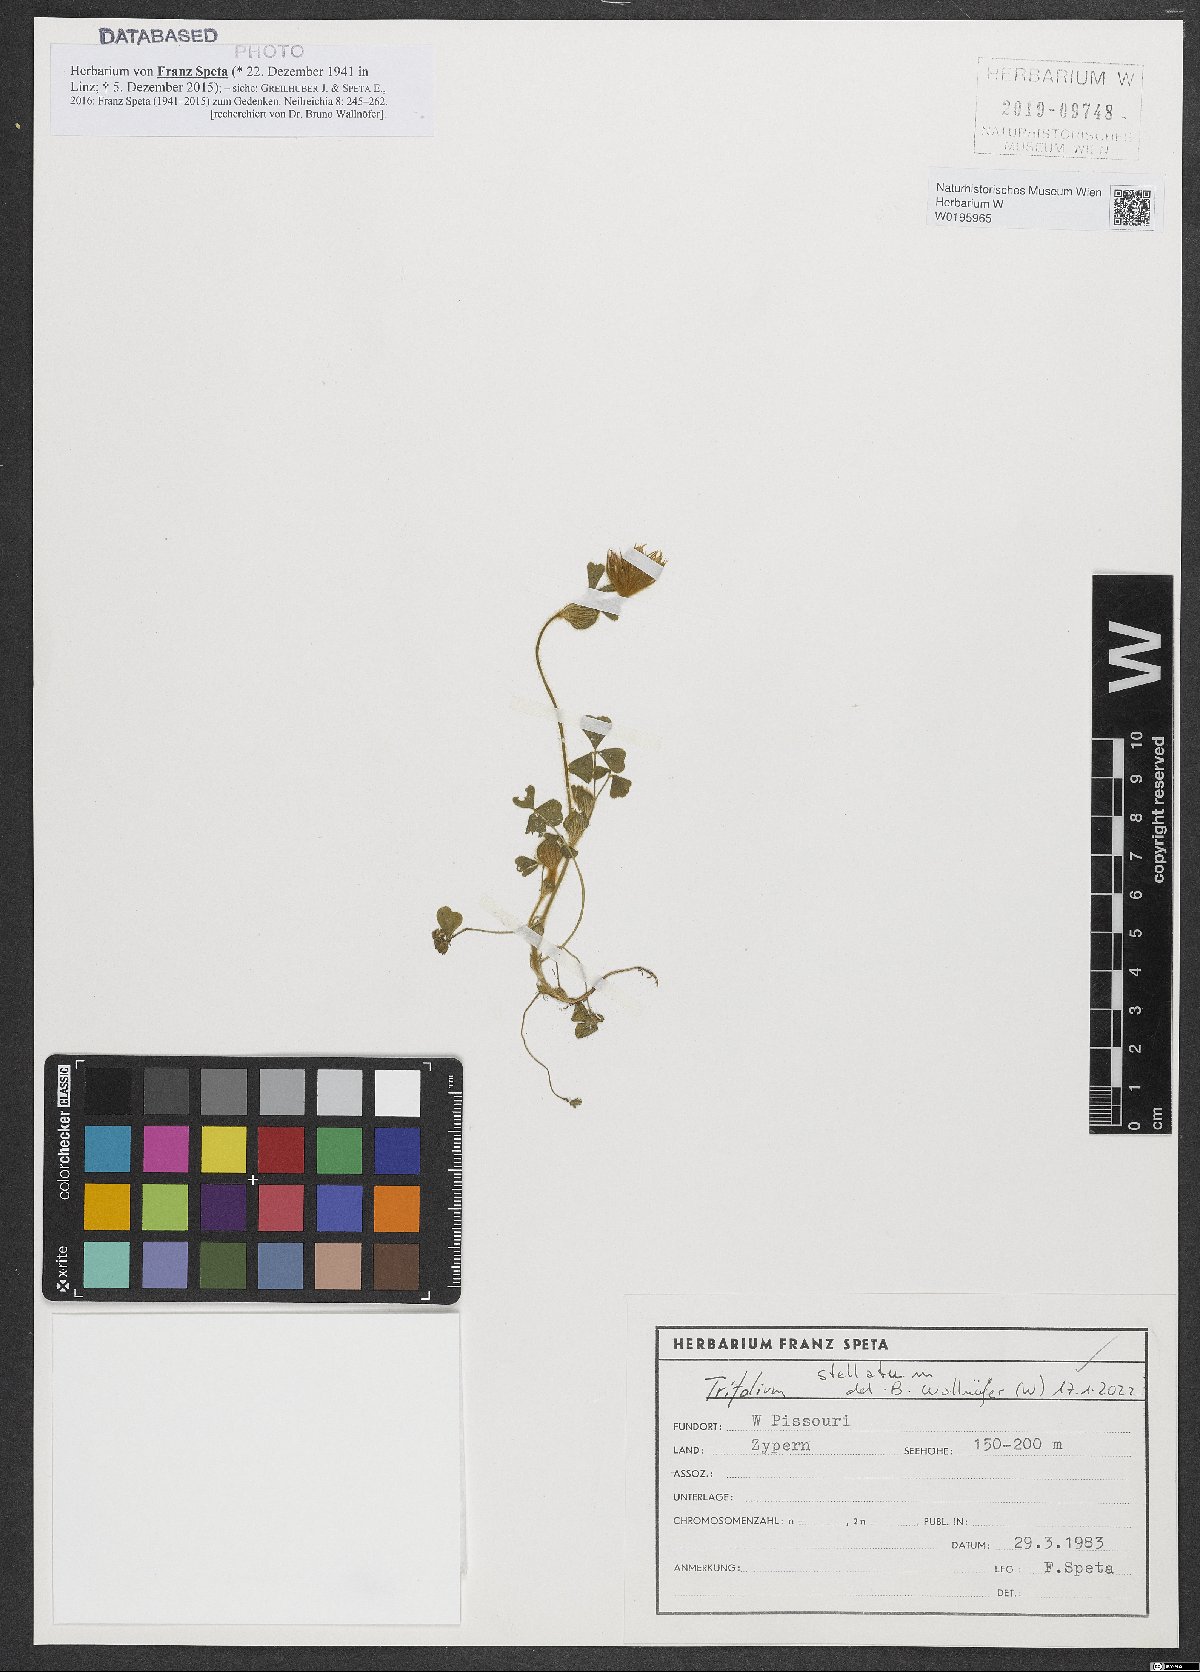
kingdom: Plantae
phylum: Tracheophyta
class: Magnoliopsida
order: Fabales
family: Fabaceae
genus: Trifolium
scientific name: Trifolium stellatum
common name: Starry clover
